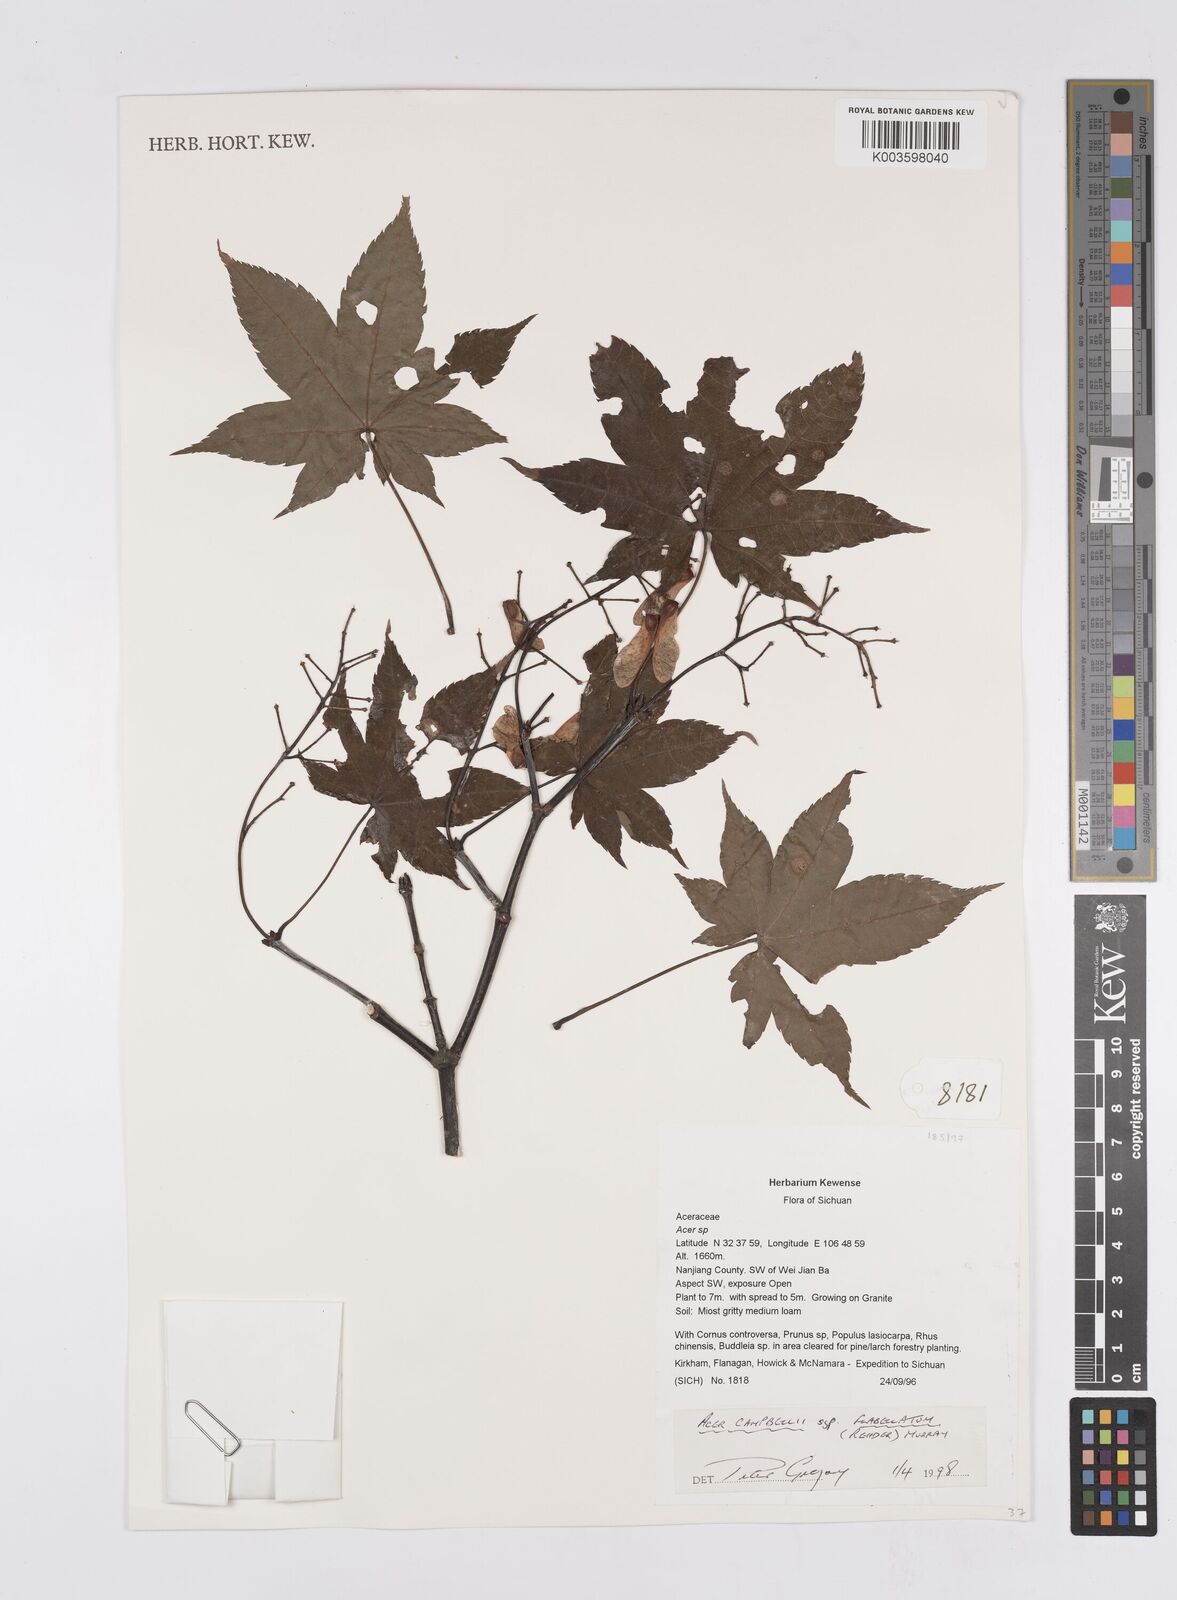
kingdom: Plantae
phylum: Tracheophyta
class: Magnoliopsida
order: Sapindales
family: Sapindaceae
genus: Acer
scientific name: Acer
